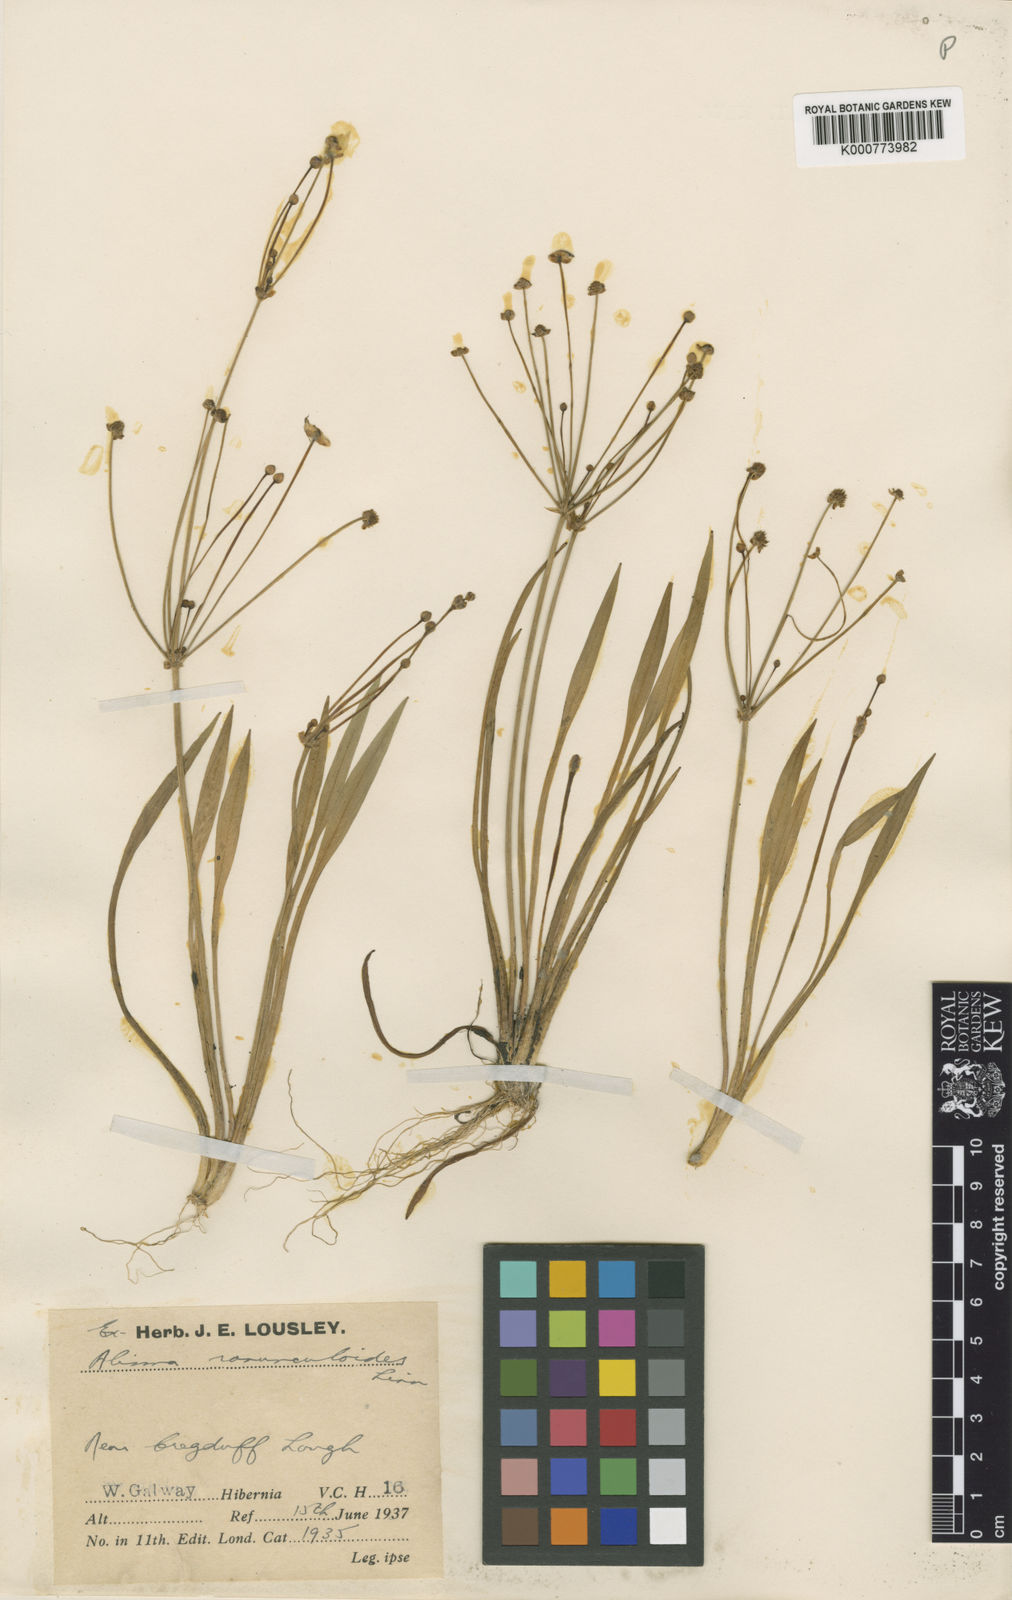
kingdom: Plantae
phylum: Tracheophyta
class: Liliopsida
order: Alismatales
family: Alismataceae
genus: Baldellia
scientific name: Baldellia ranunculoides
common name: Lesser water-plantain
